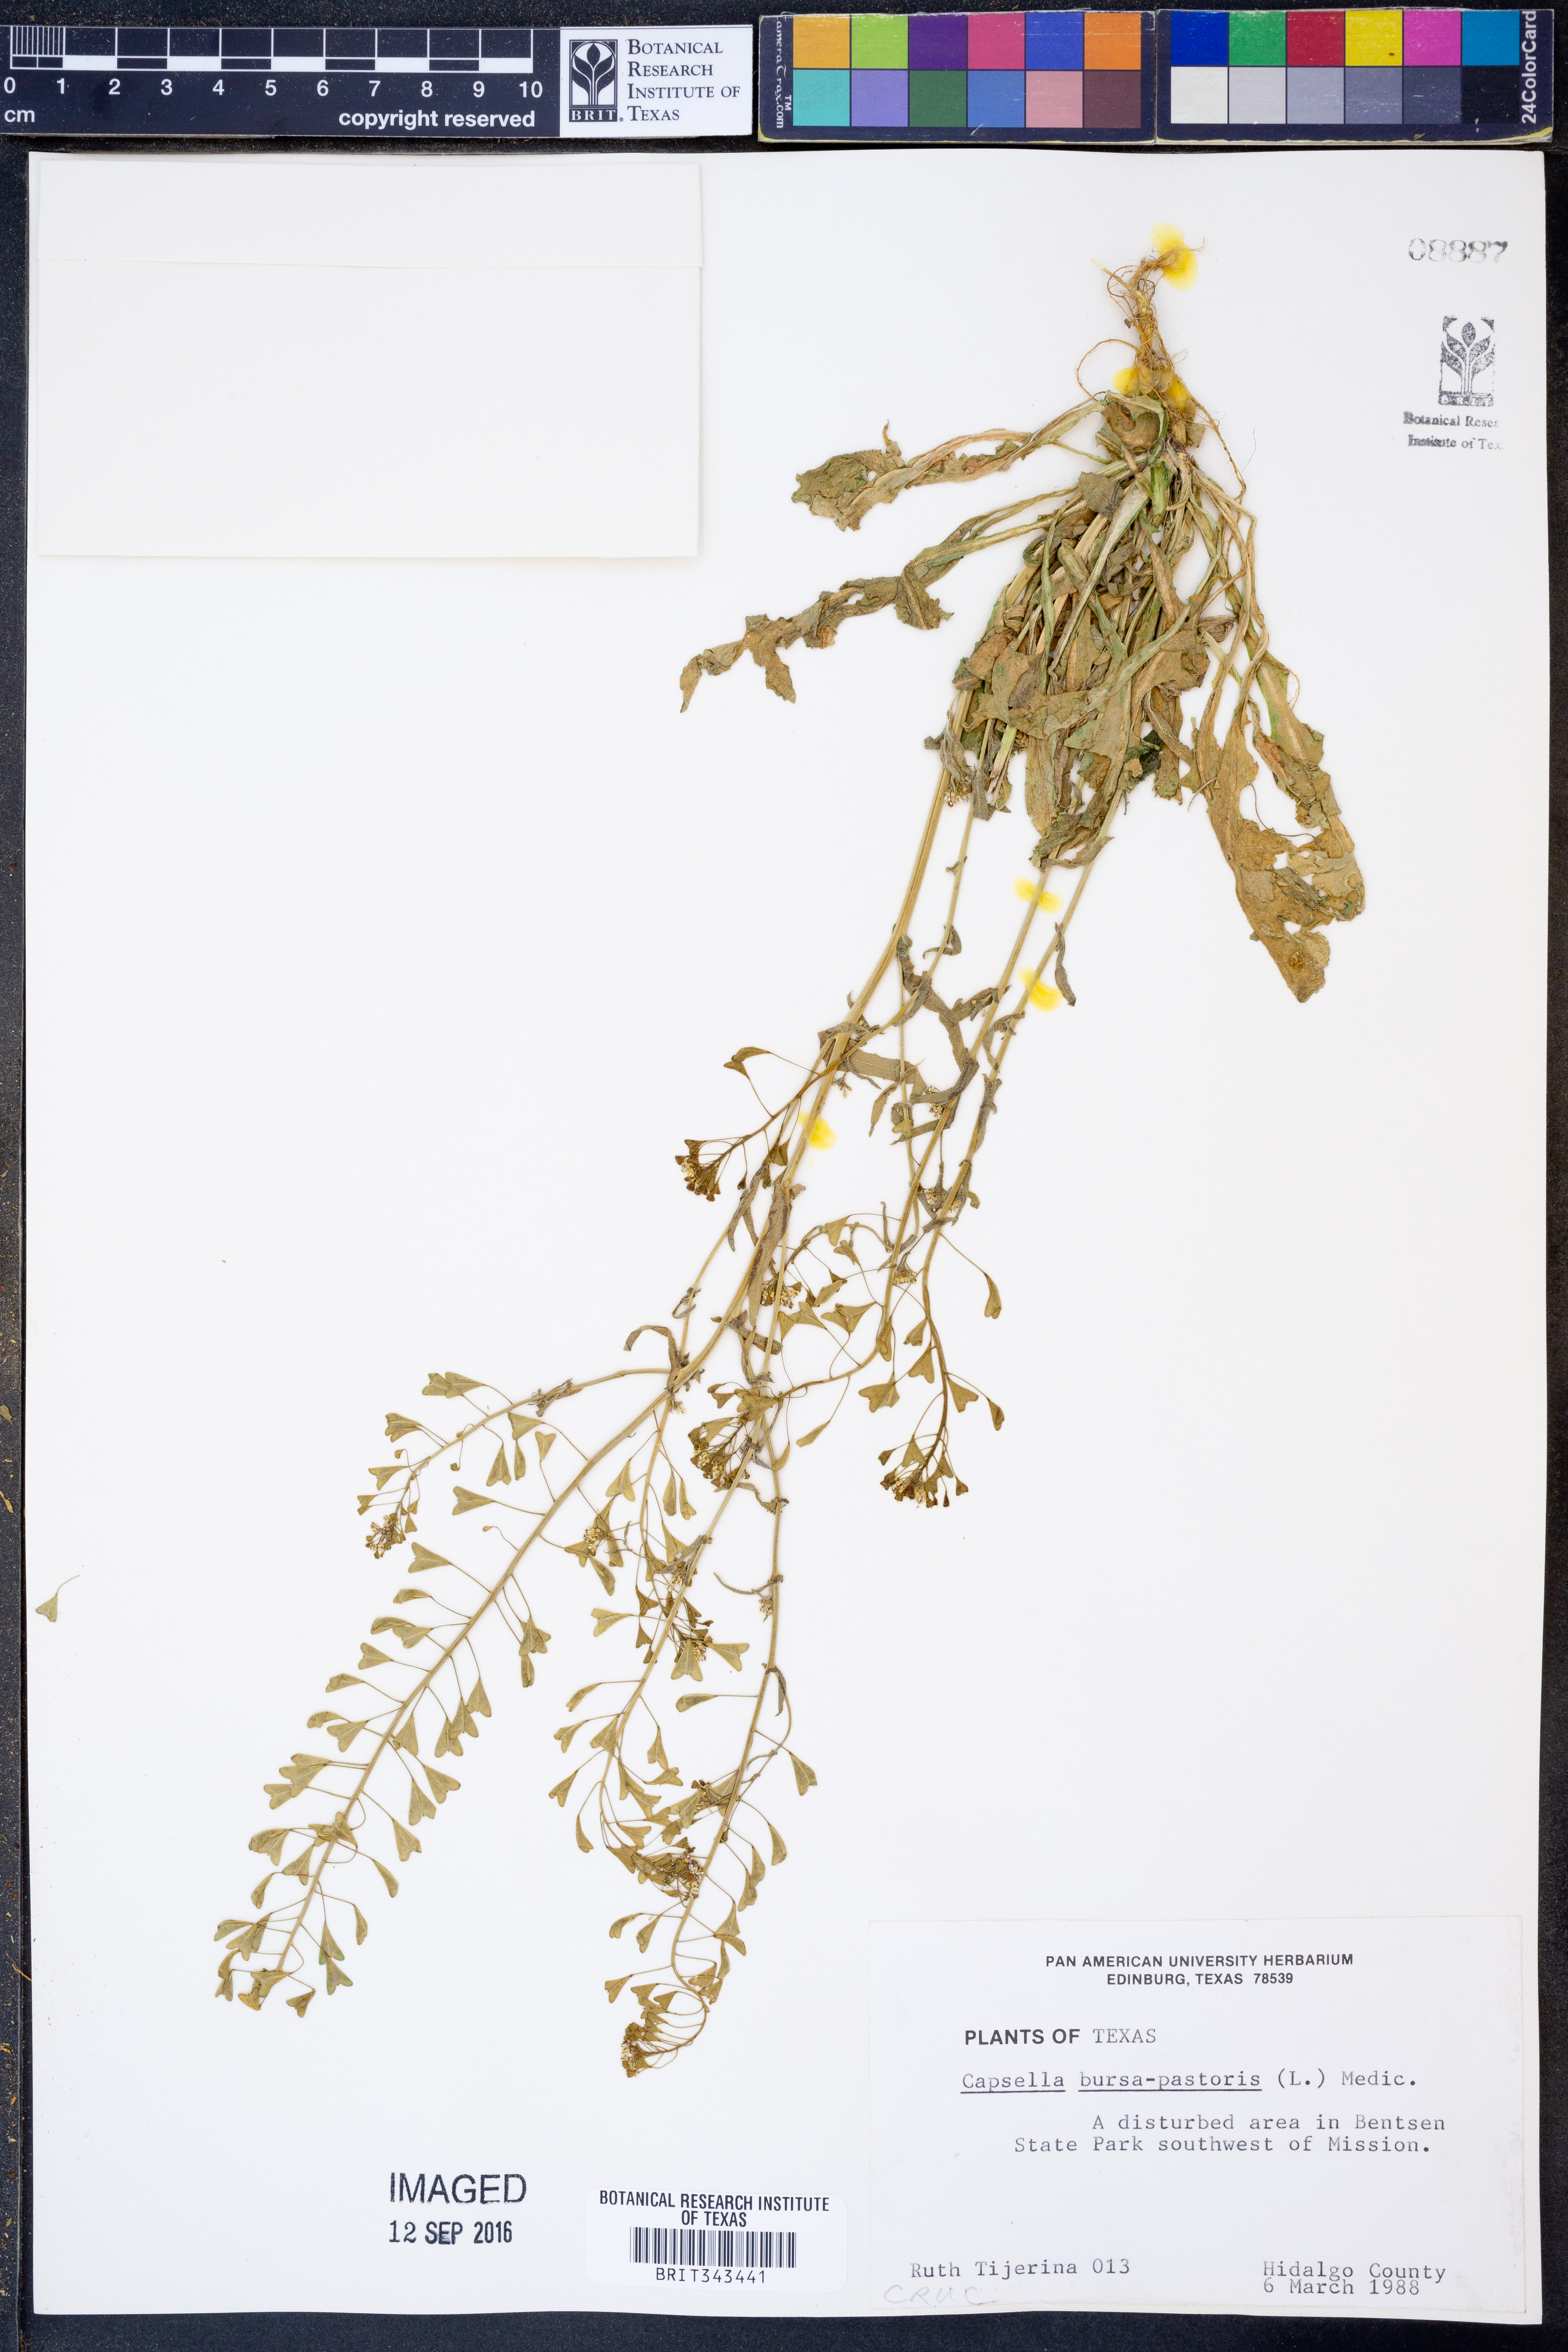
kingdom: Plantae
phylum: Tracheophyta
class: Magnoliopsida
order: Brassicales
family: Brassicaceae
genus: Capsella
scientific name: Capsella bursa-pastoris
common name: Shepherd's purse
